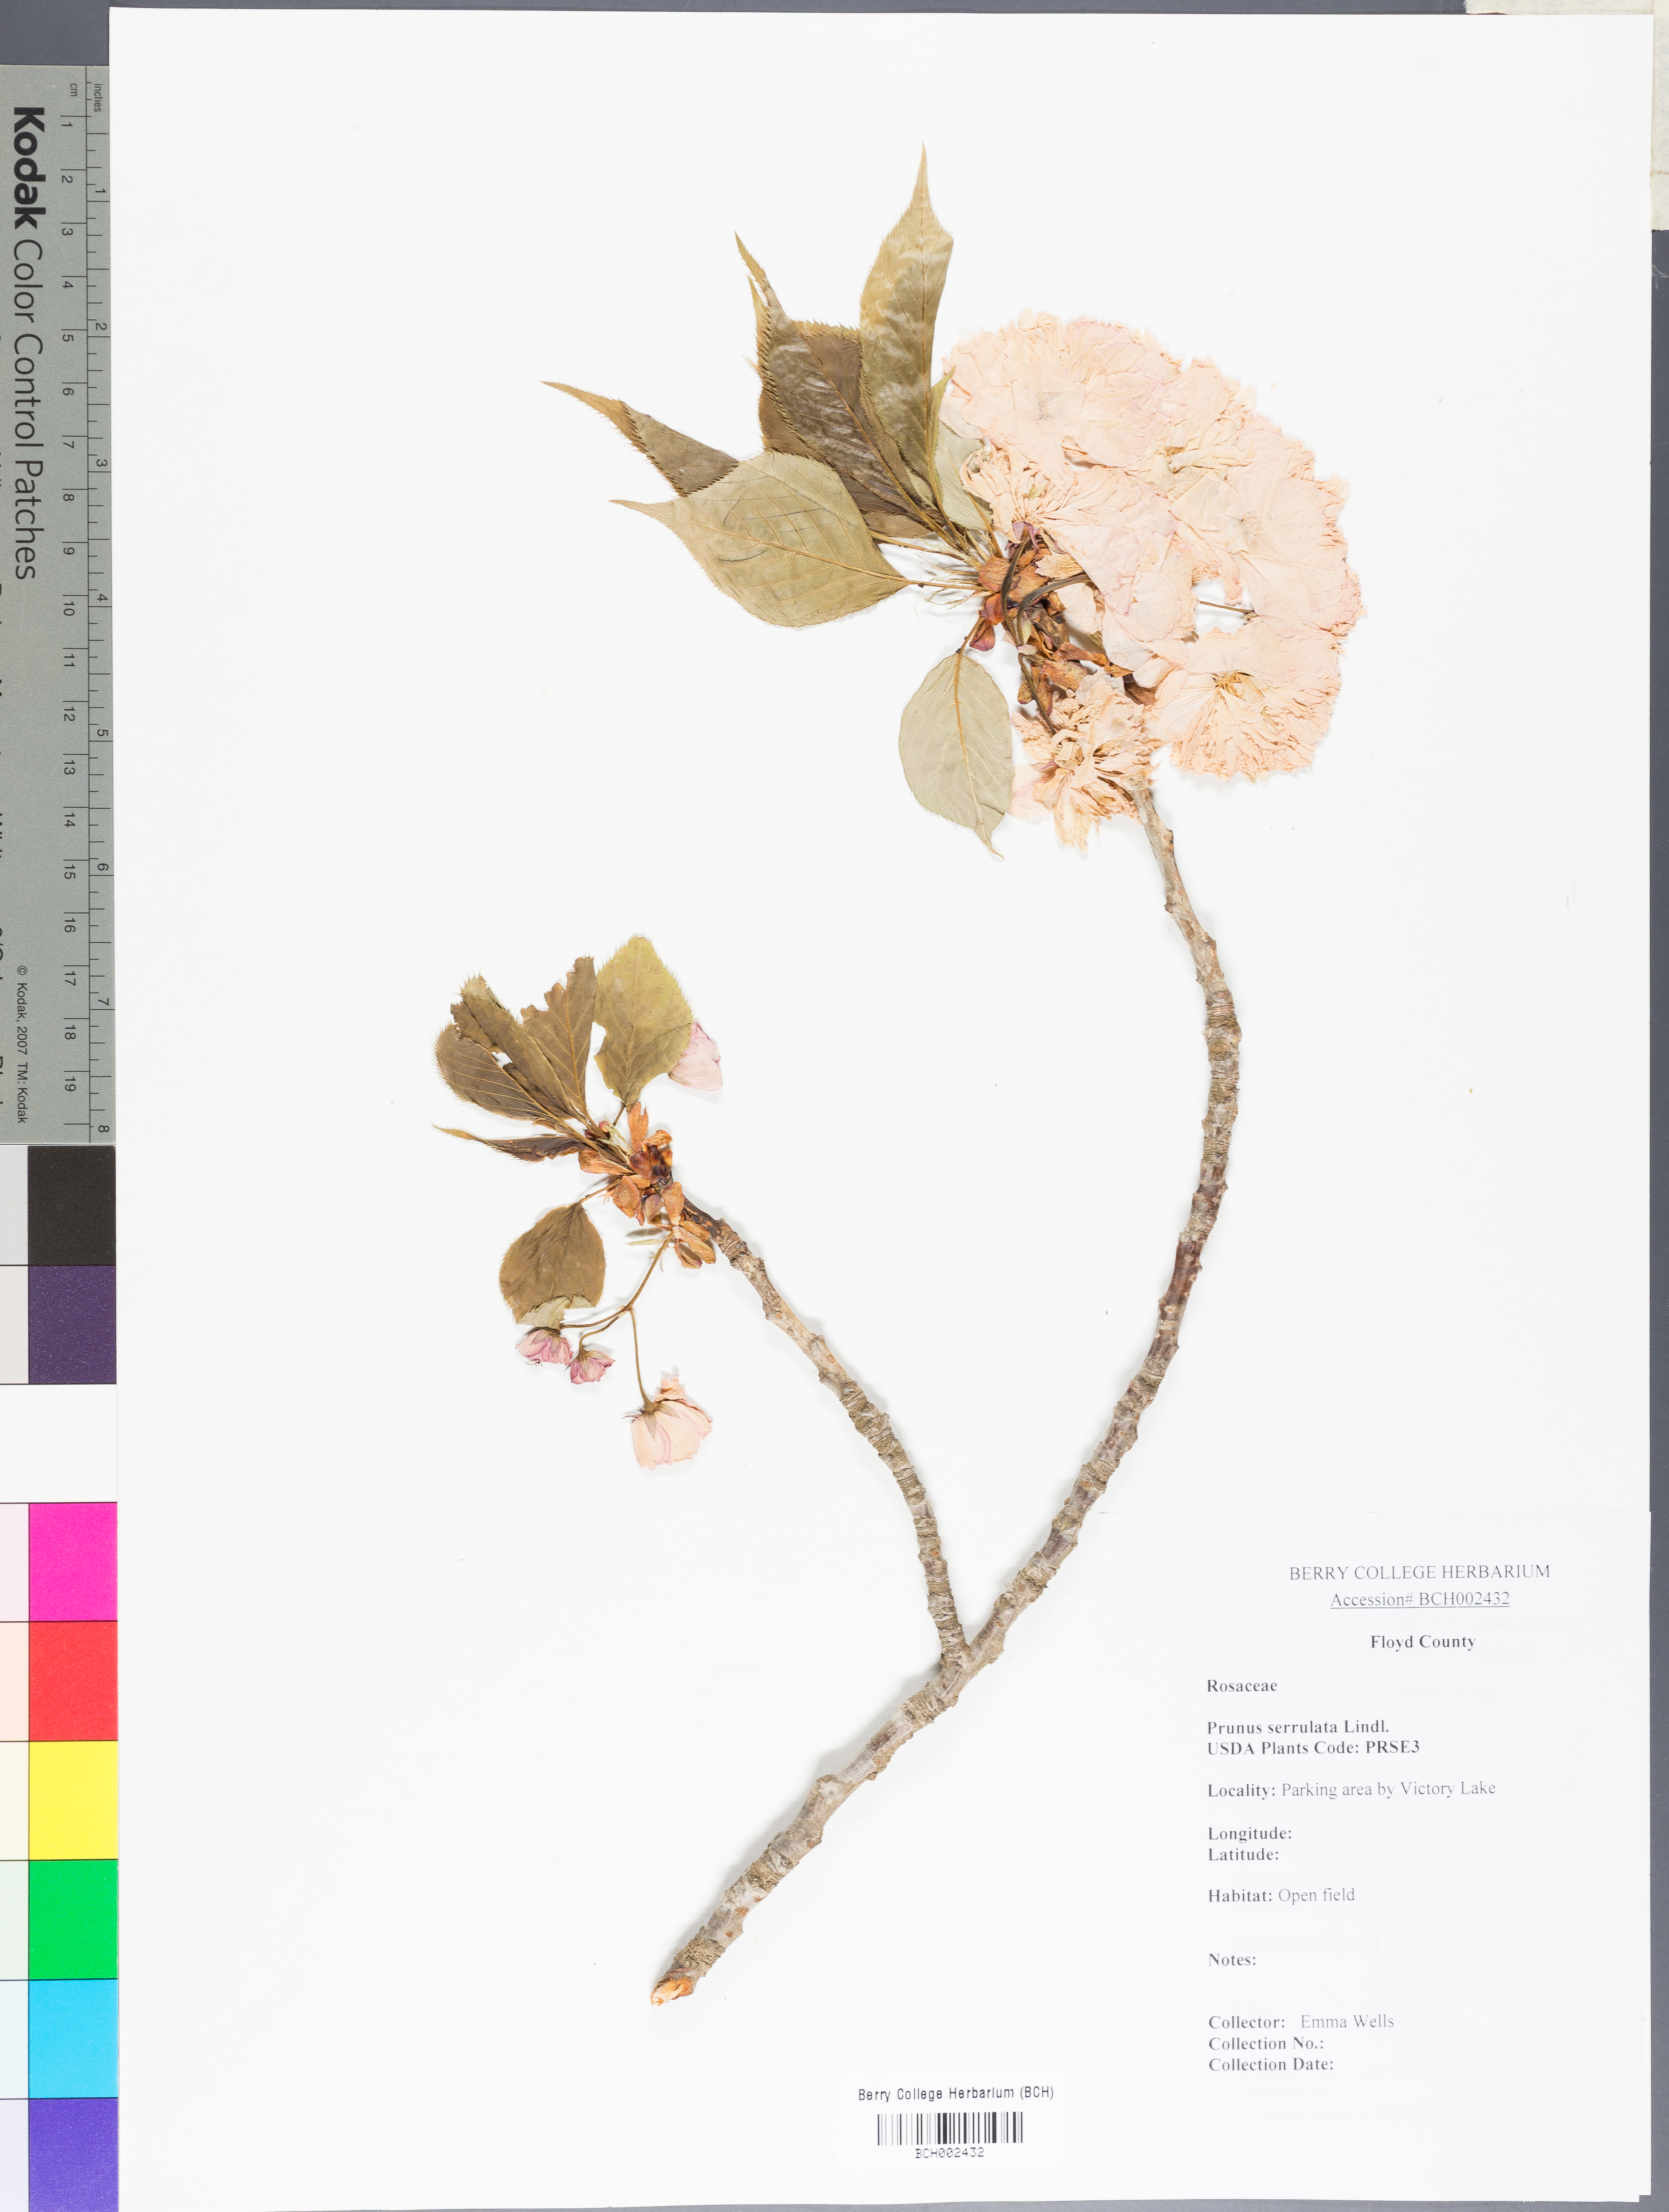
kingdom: Plantae
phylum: Tracheophyta
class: Magnoliopsida
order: Rosales
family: Rosaceae
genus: Prunus
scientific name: Prunus
